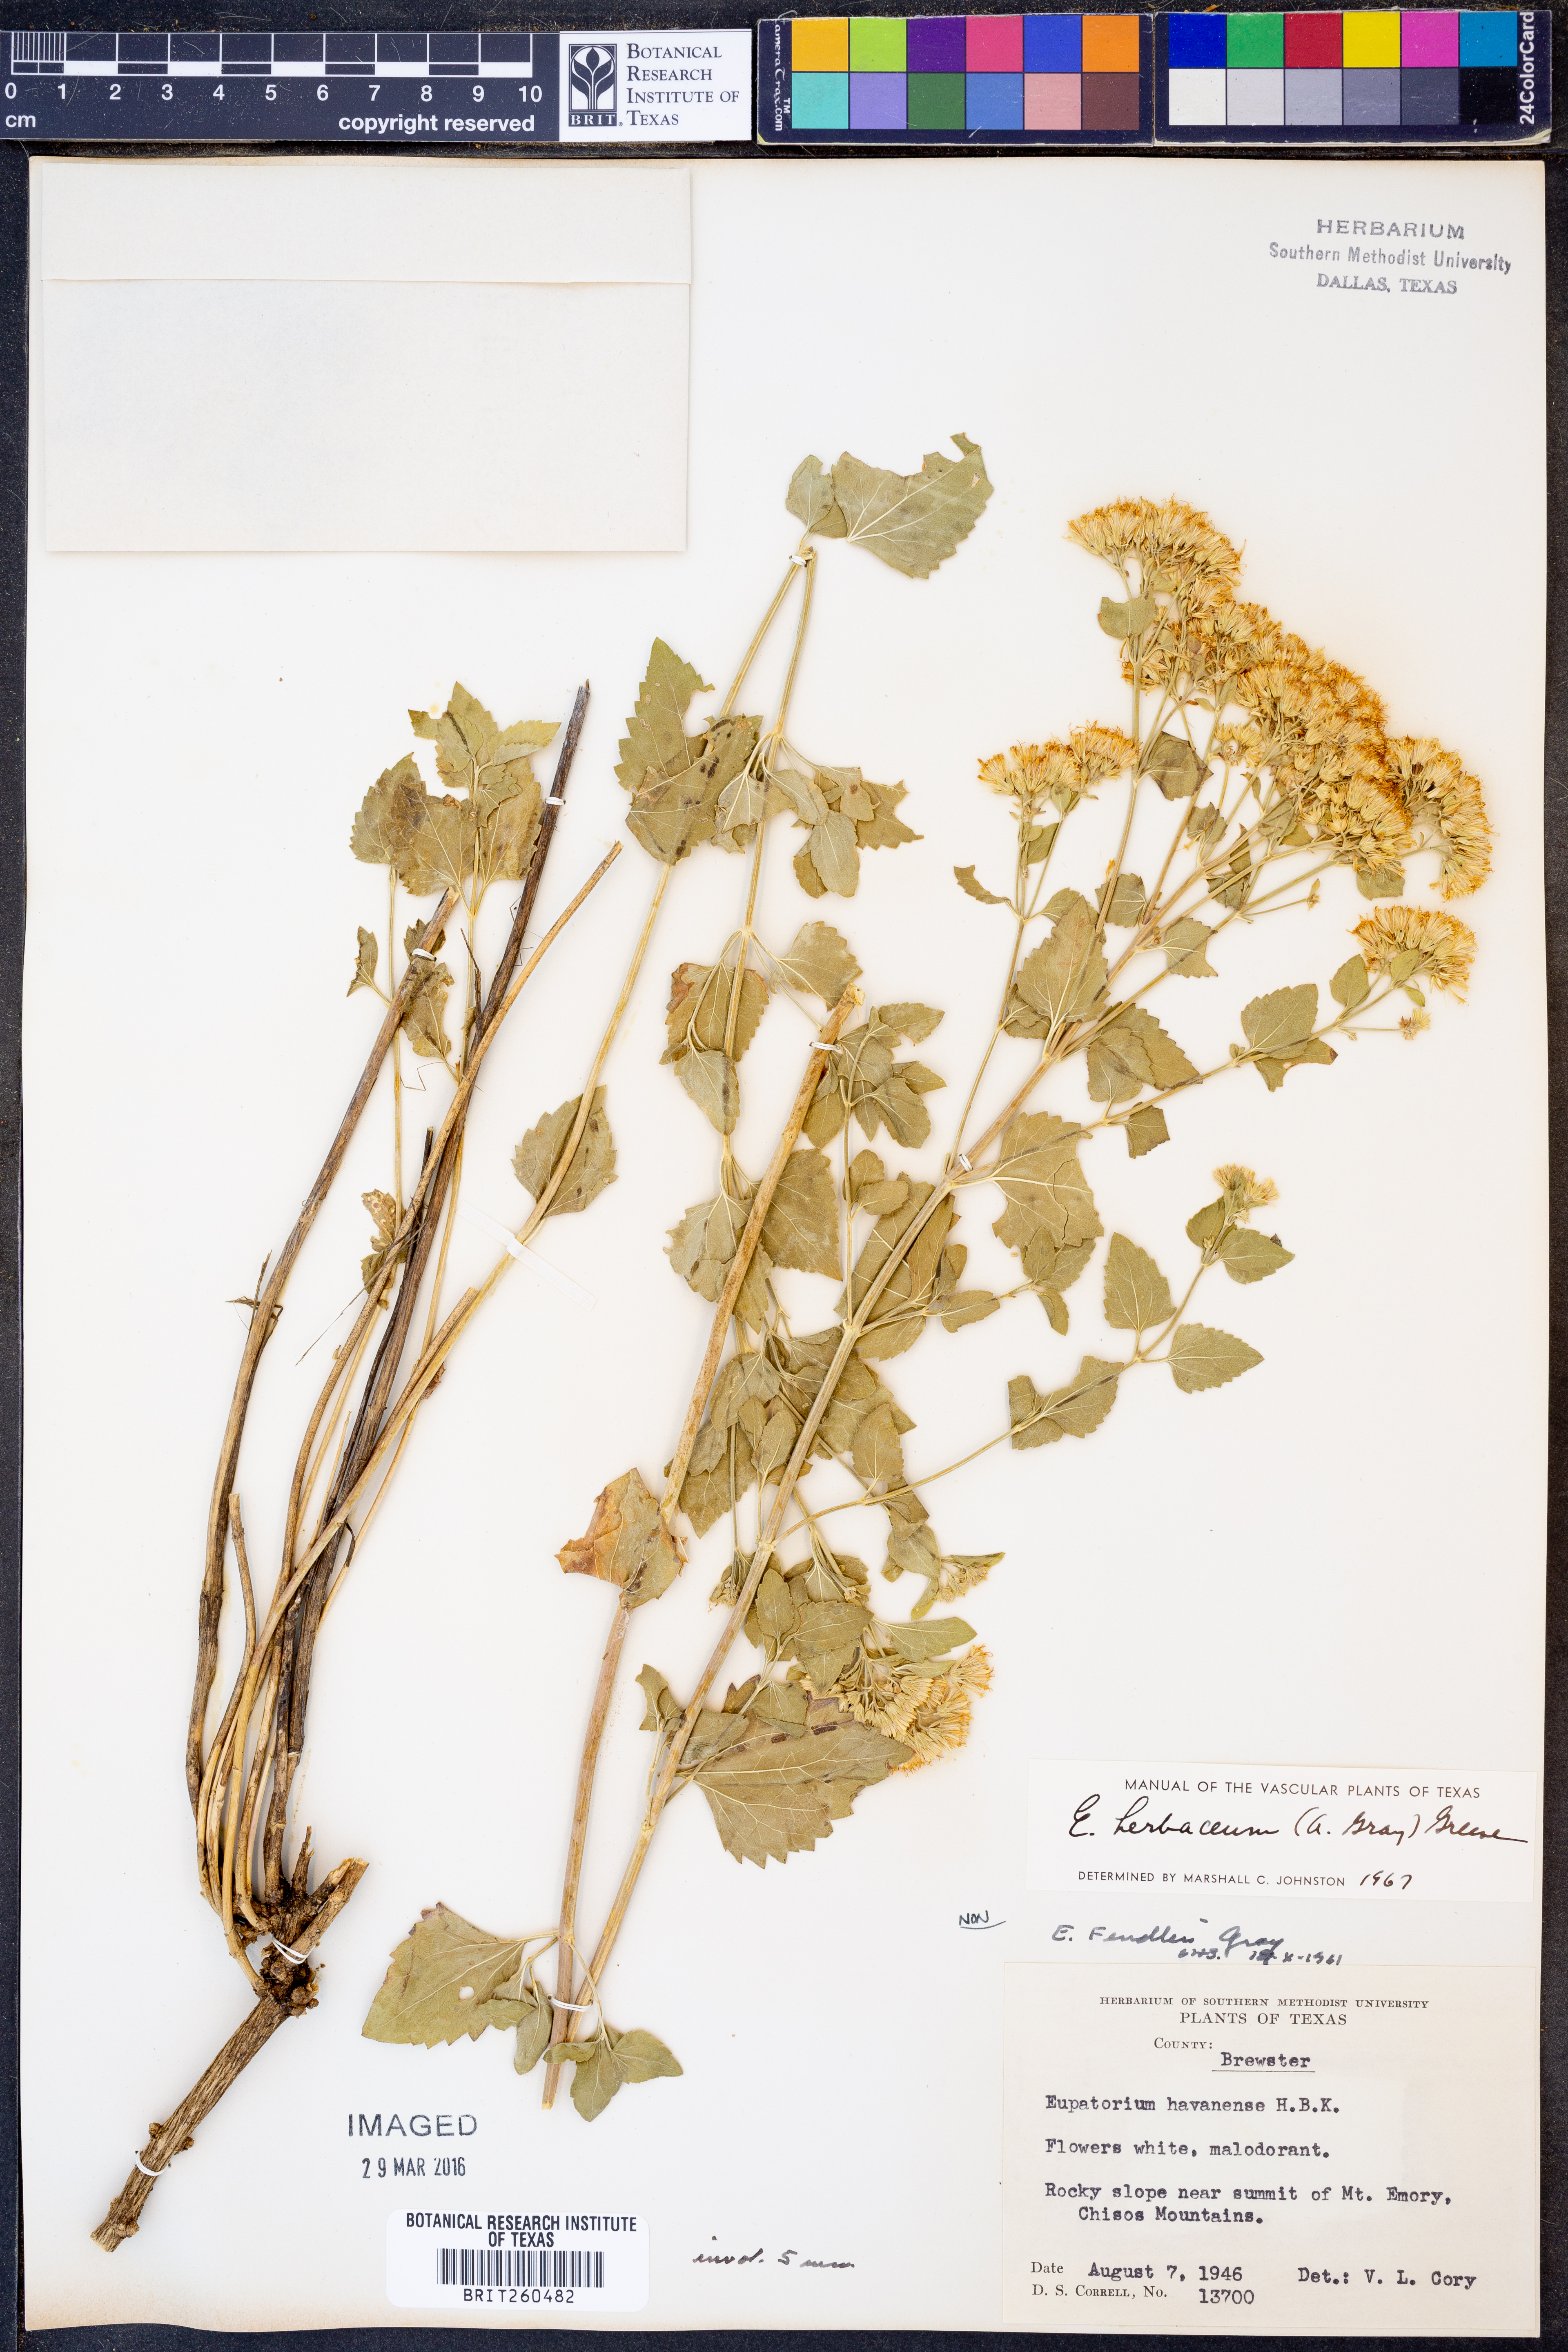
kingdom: Plantae
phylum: Tracheophyta
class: Magnoliopsida
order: Asterales
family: Asteraceae
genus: Ageratina
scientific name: Ageratina herbacea
